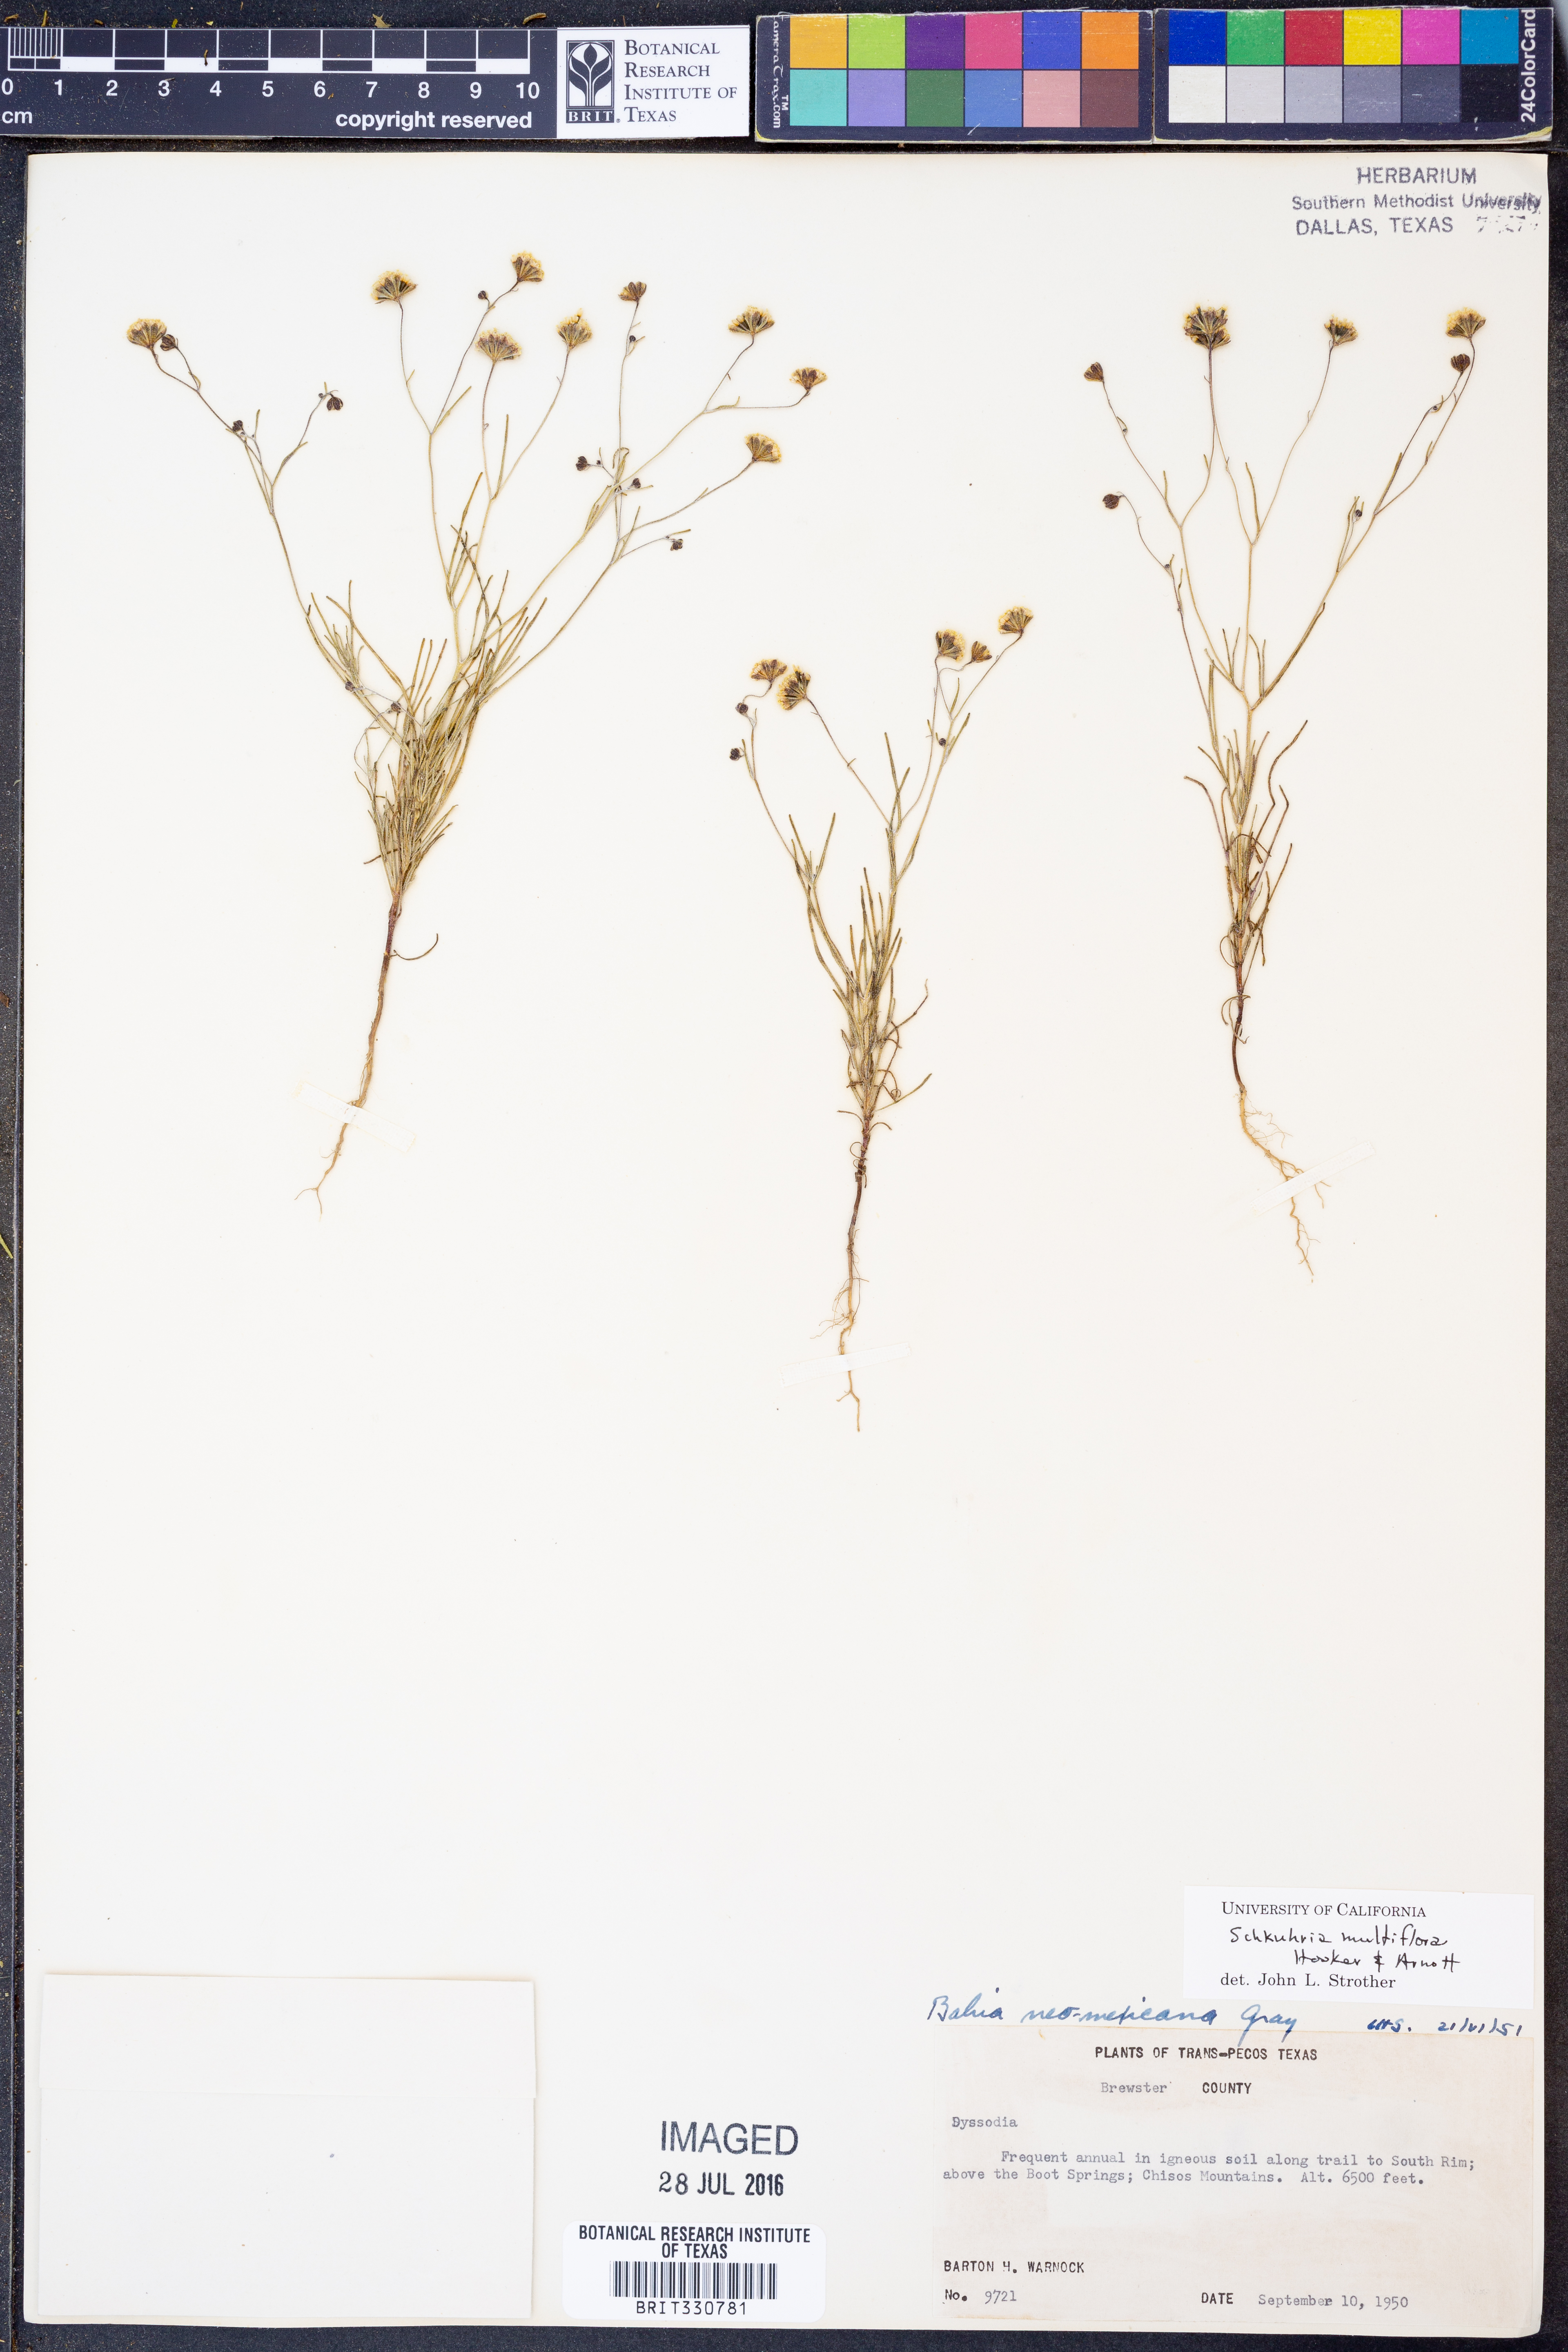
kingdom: Plantae
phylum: Tracheophyta
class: Magnoliopsida
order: Asterales
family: Asteraceae
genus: Picradeniopsis
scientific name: Picradeniopsis multiflora
